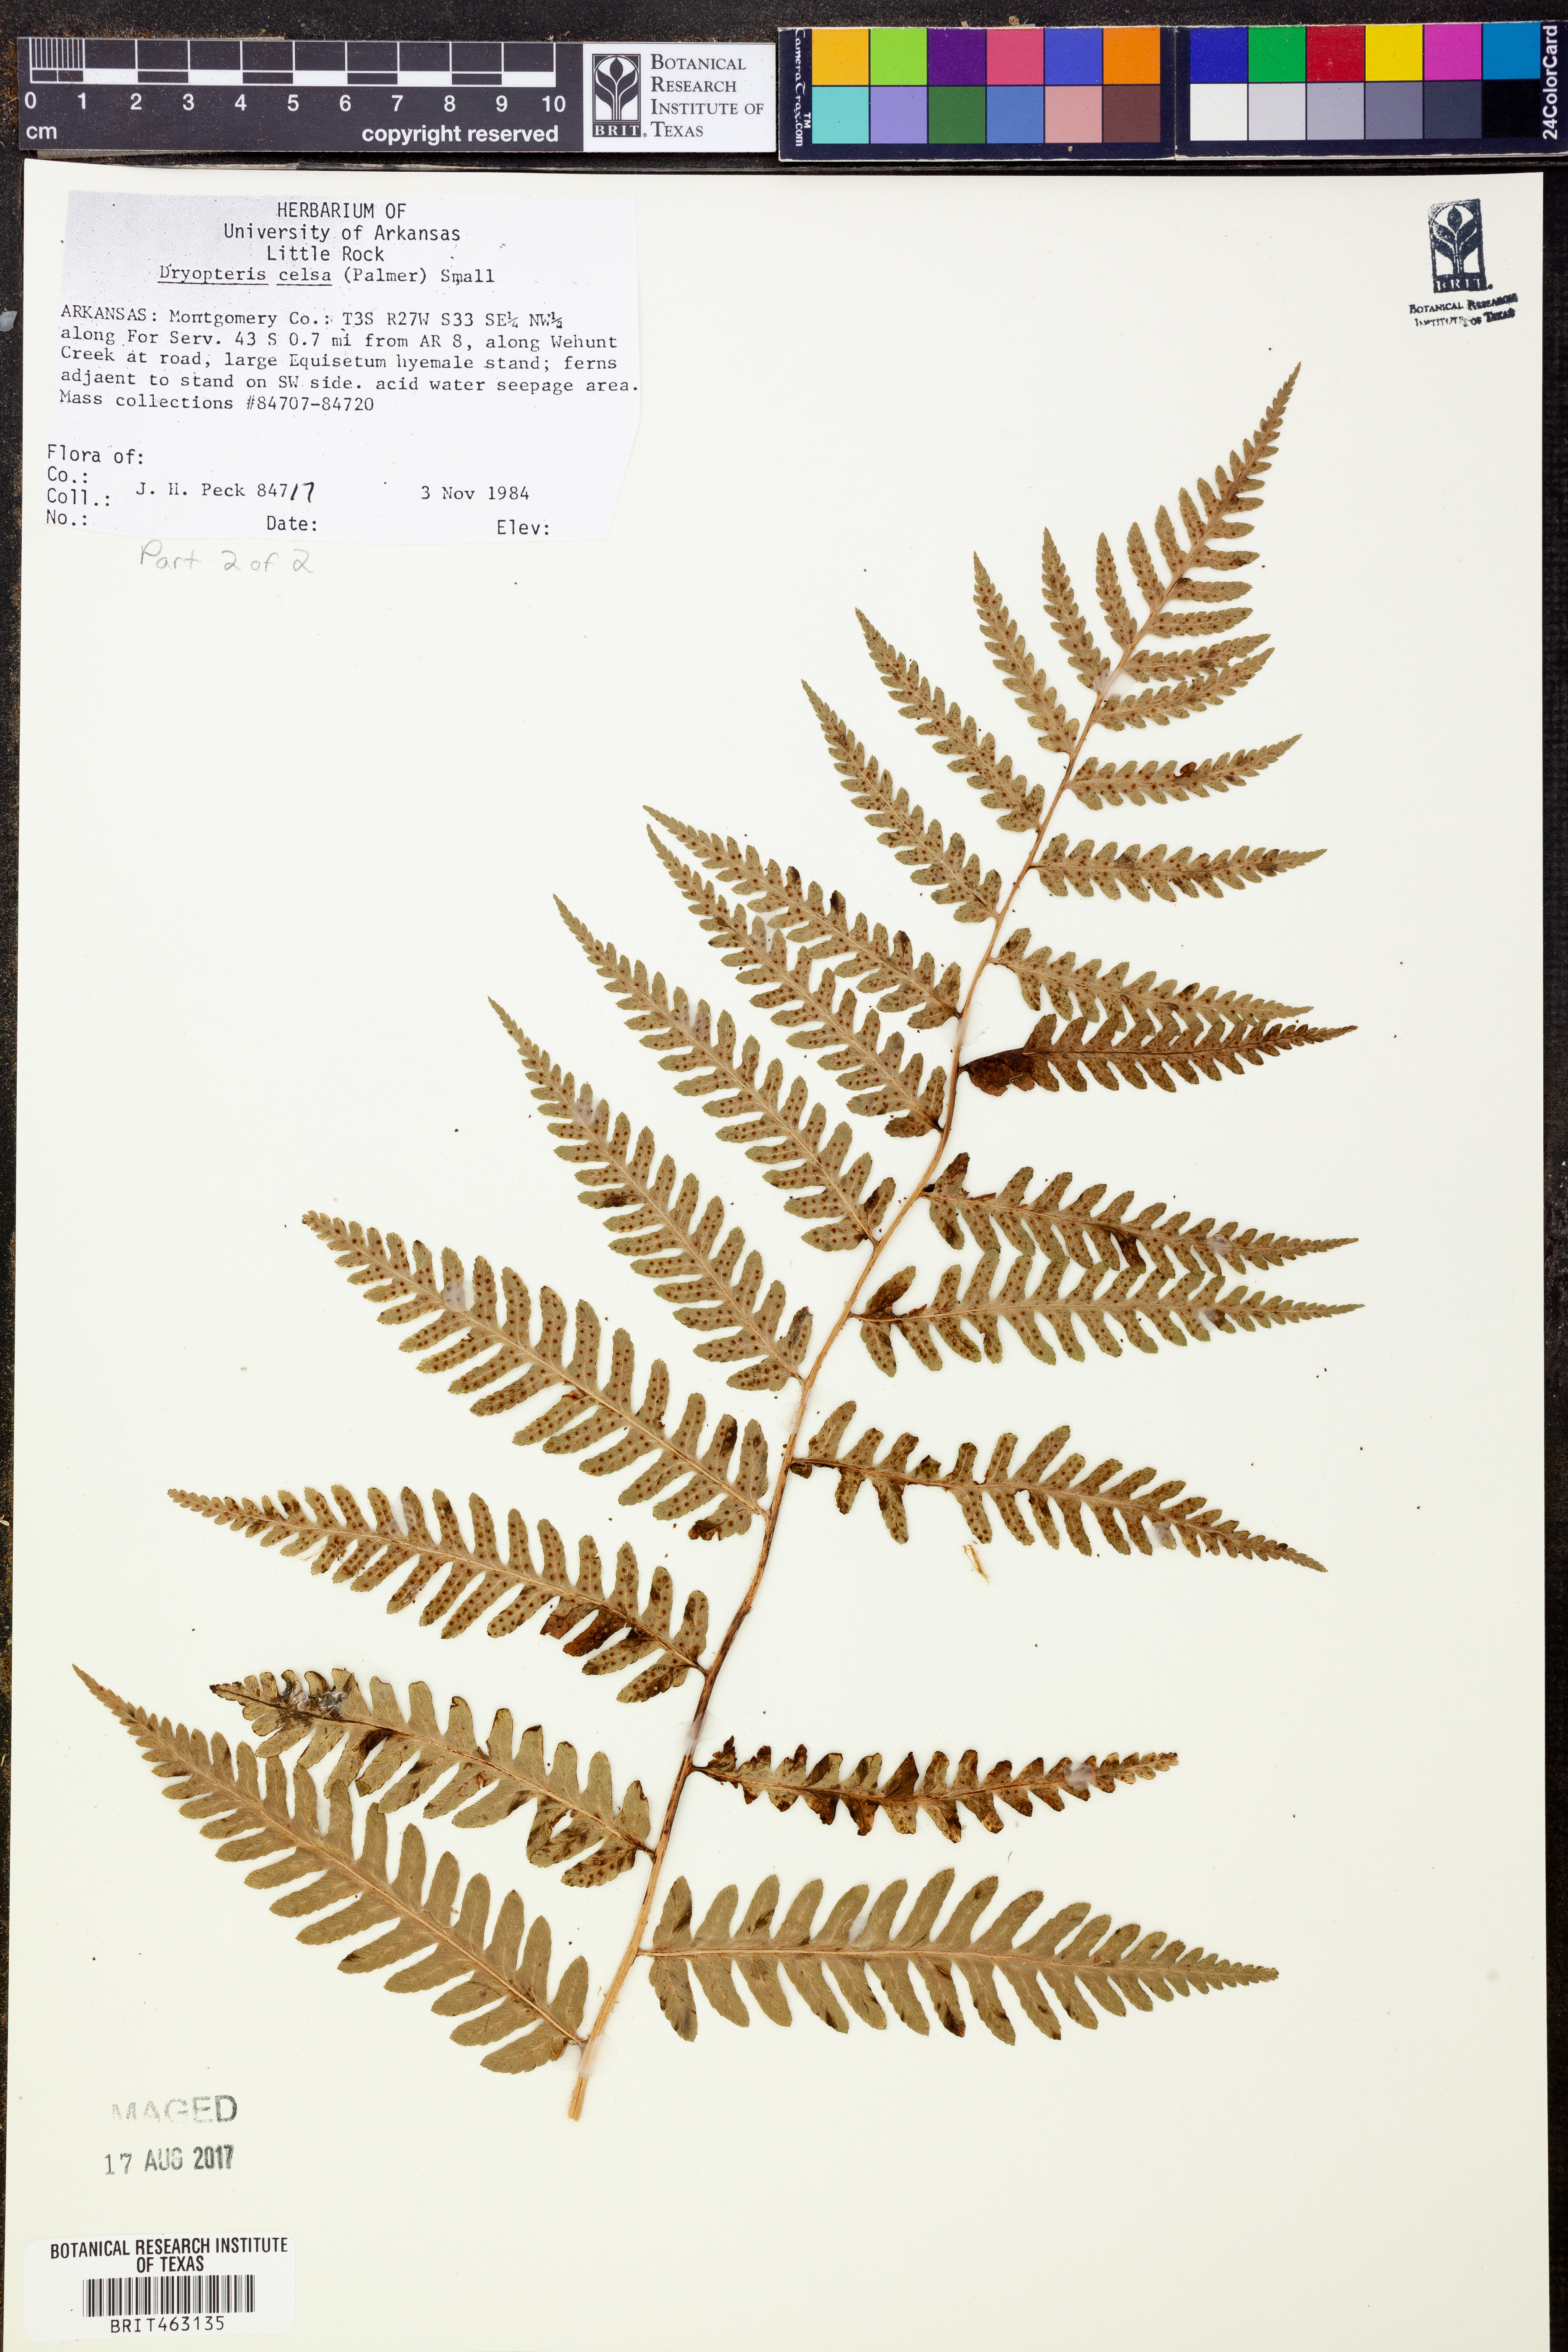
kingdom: Plantae
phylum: Tracheophyta
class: Polypodiopsida
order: Polypodiales
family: Dryopteridaceae
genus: Dryopteris
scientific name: Dryopteris celsa
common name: Log fern
